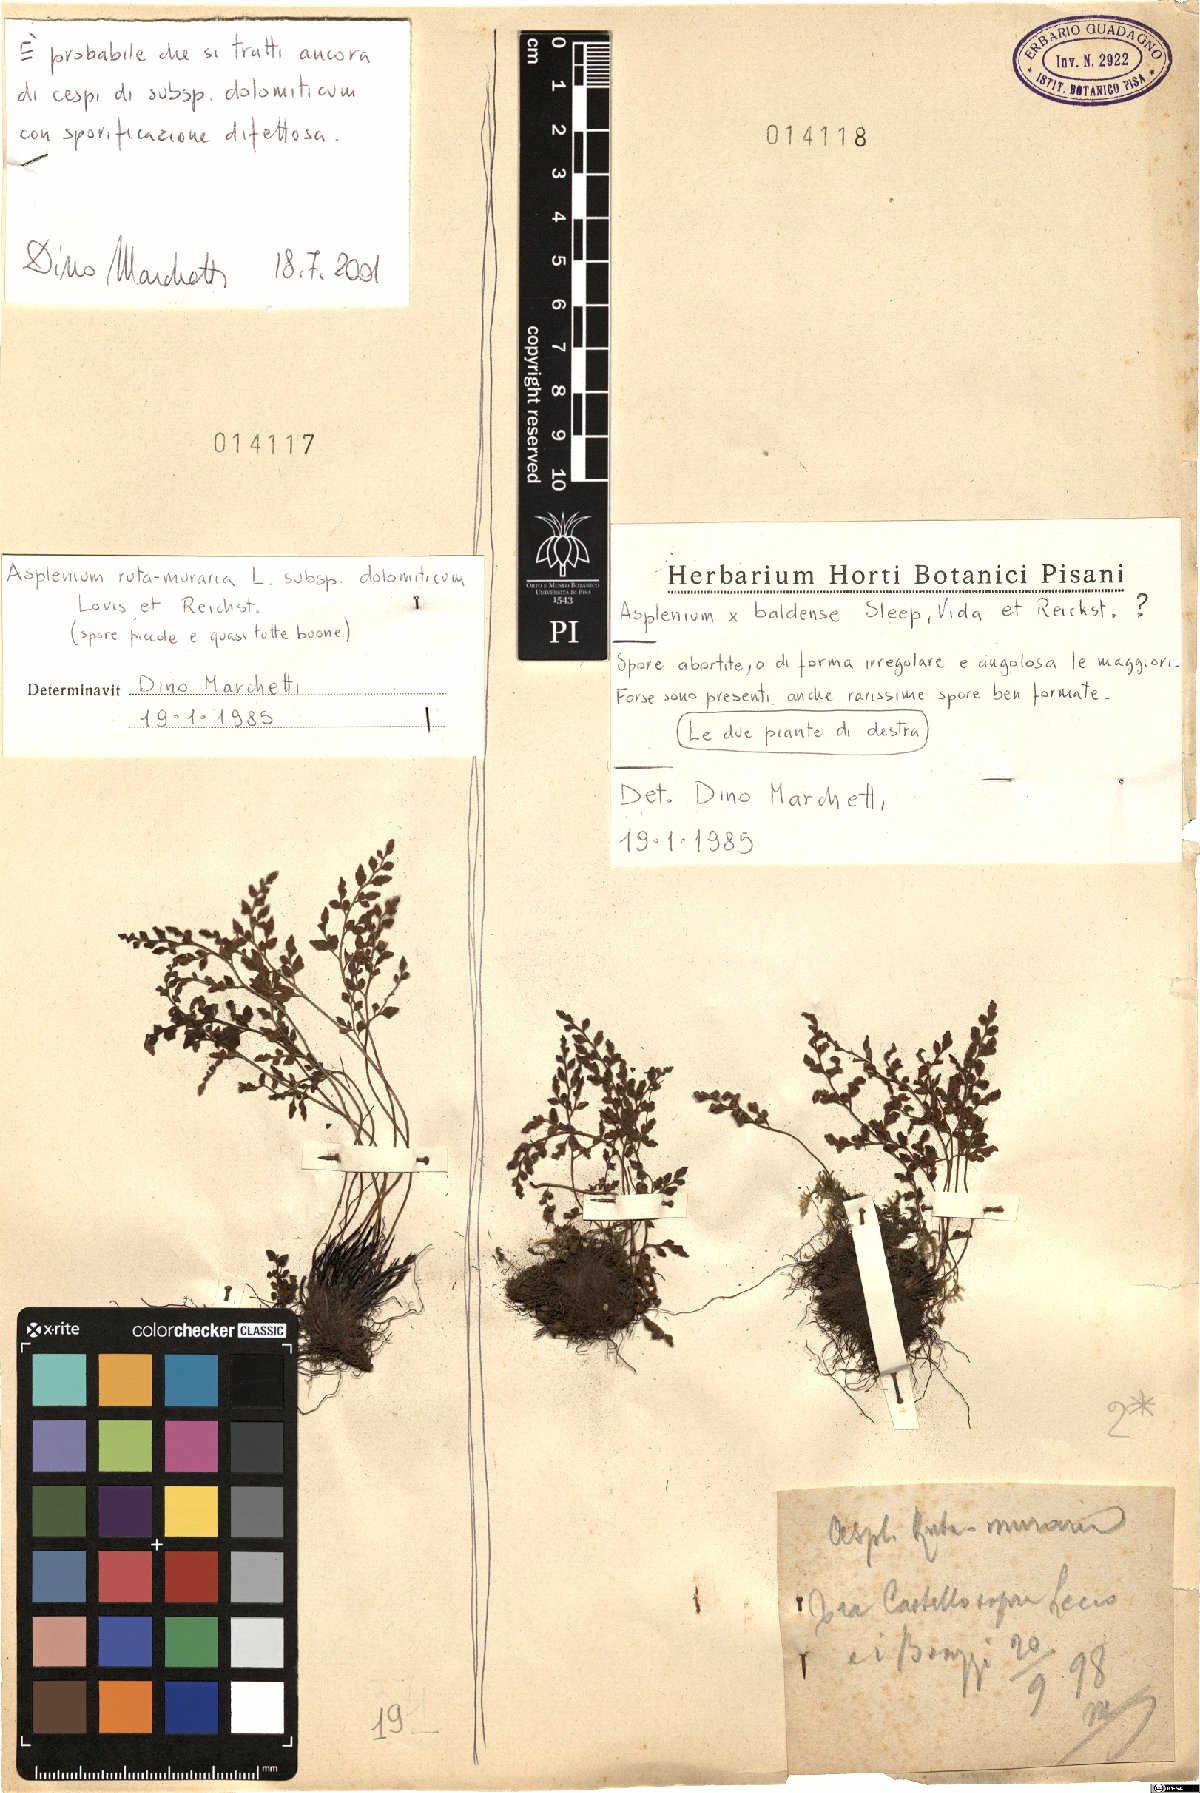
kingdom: Plantae
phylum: Tracheophyta
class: Polypodiopsida
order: Polypodiales
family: Aspleniaceae
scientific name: Aspleniaceae
